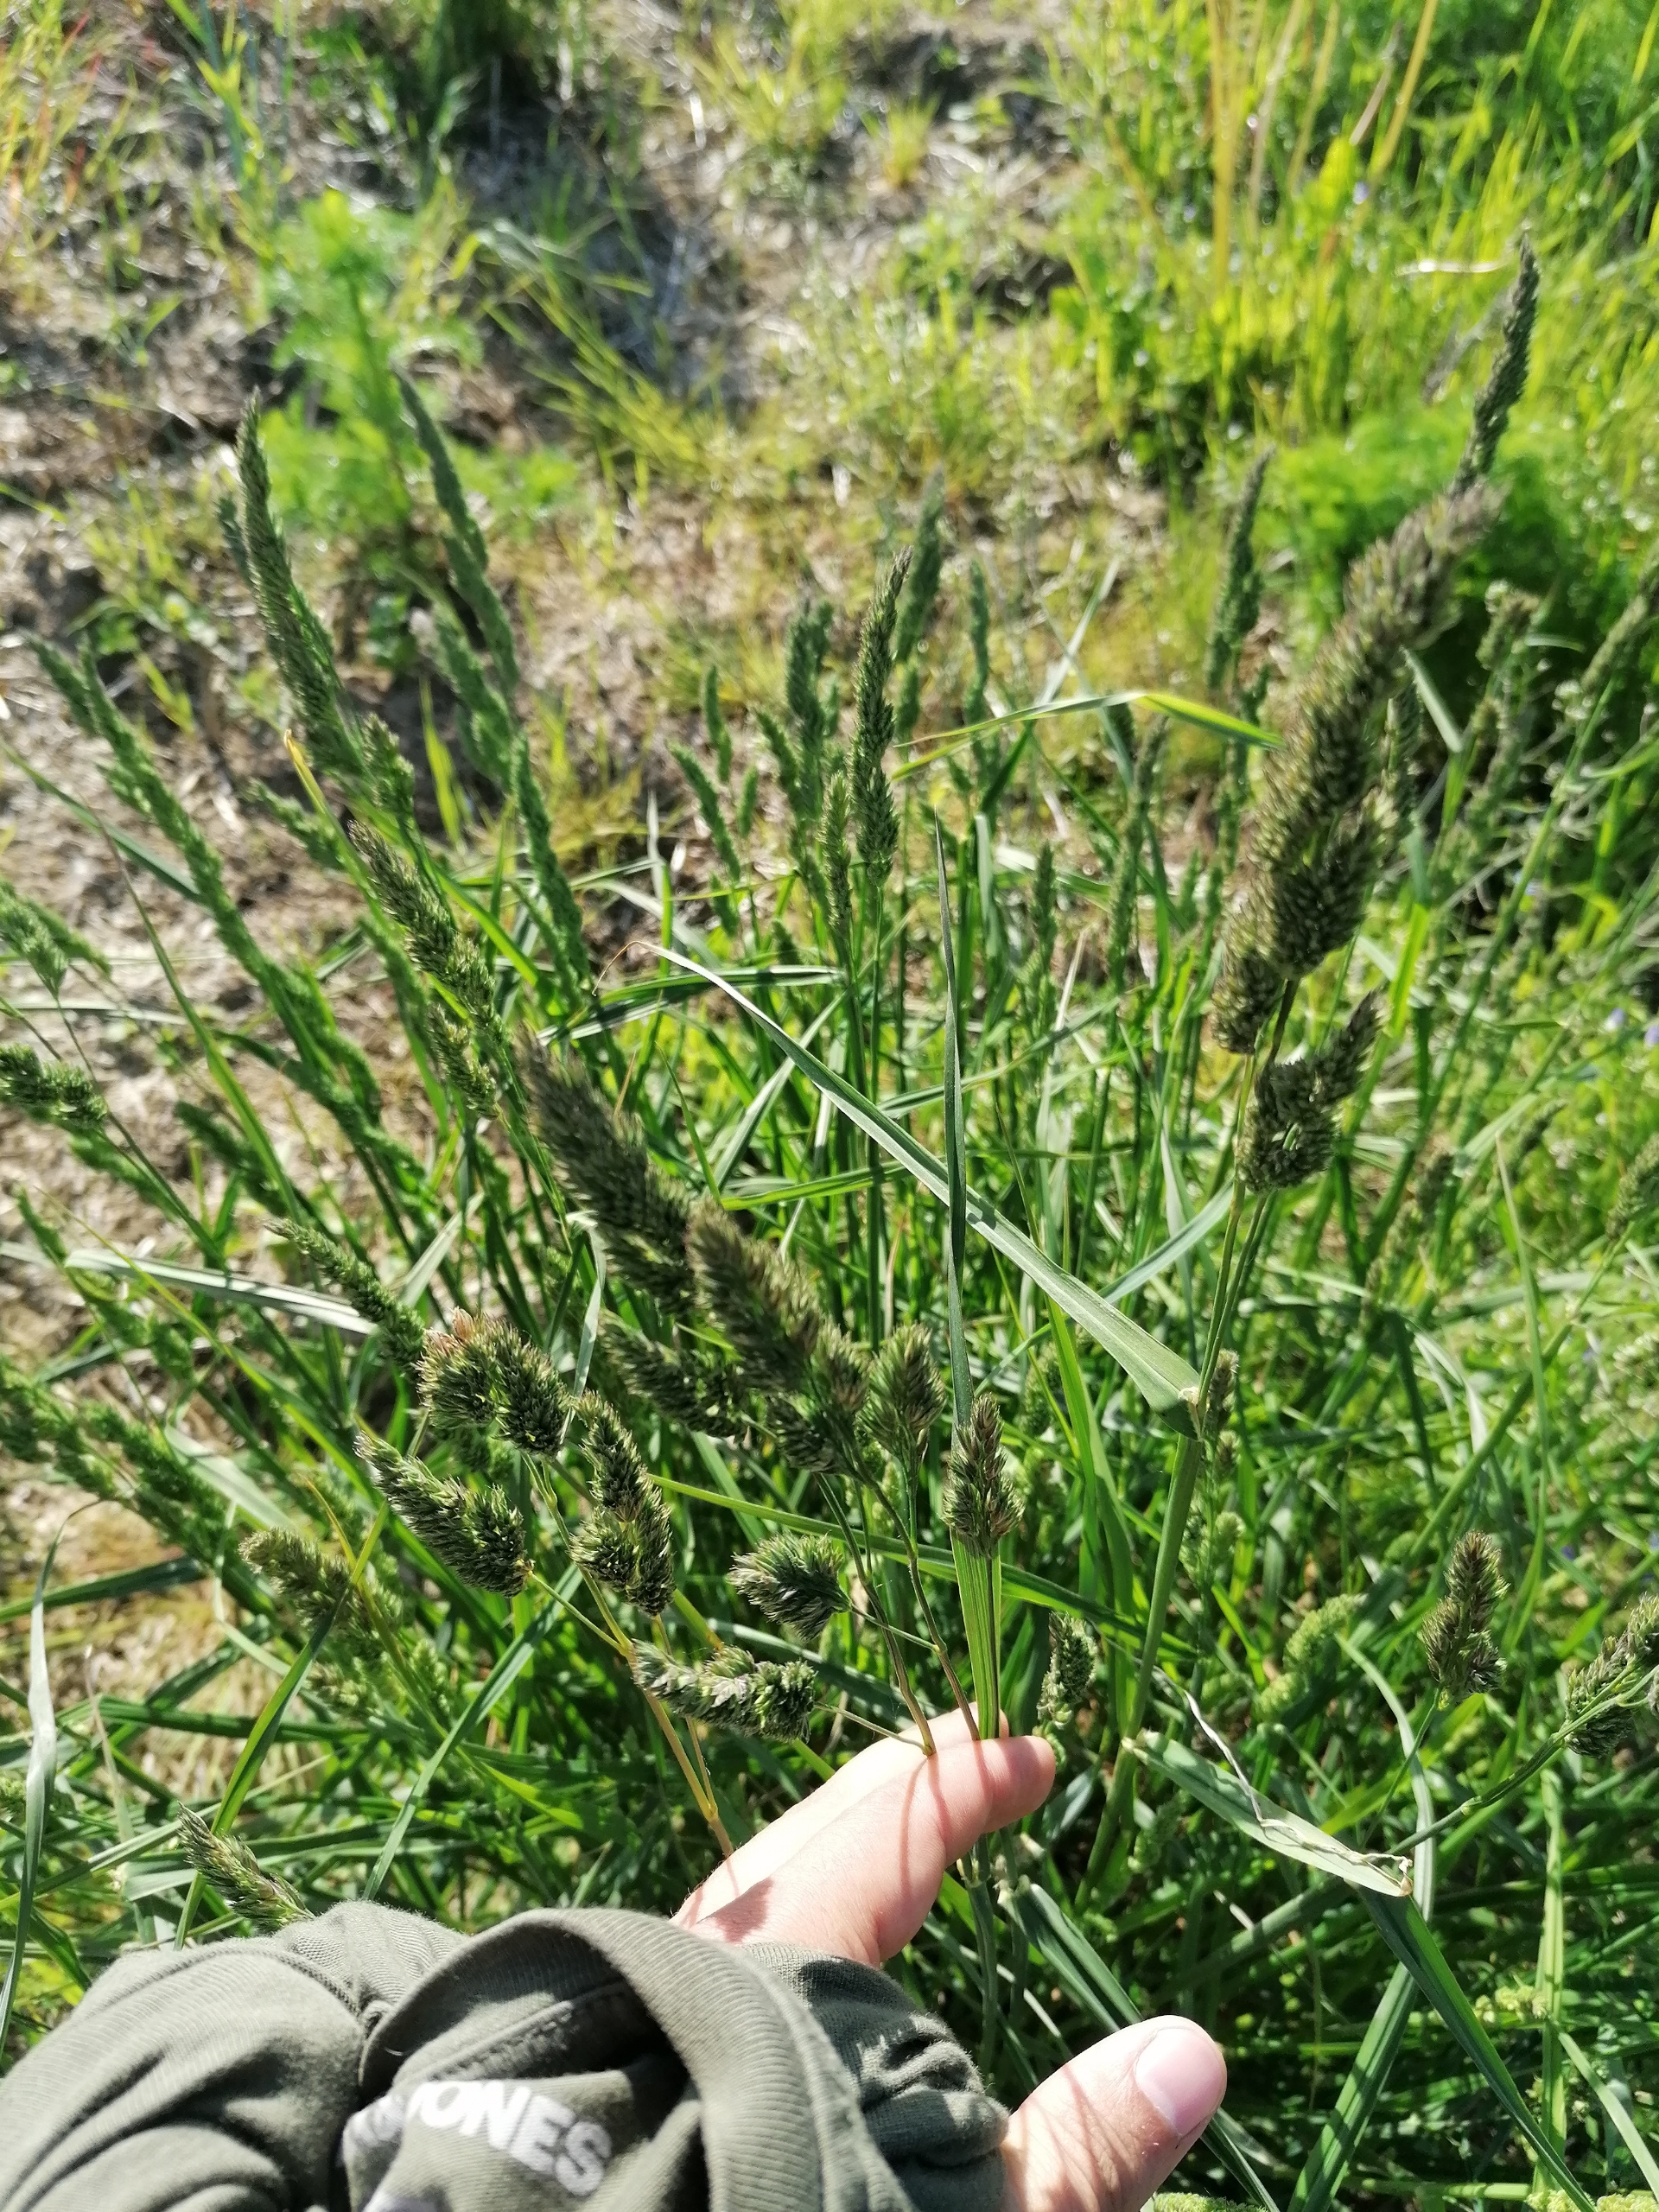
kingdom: Plantae
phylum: Tracheophyta
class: Liliopsida
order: Poales
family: Poaceae
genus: Dactylis
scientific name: Dactylis glomerata
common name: Almindelig hundegræs
